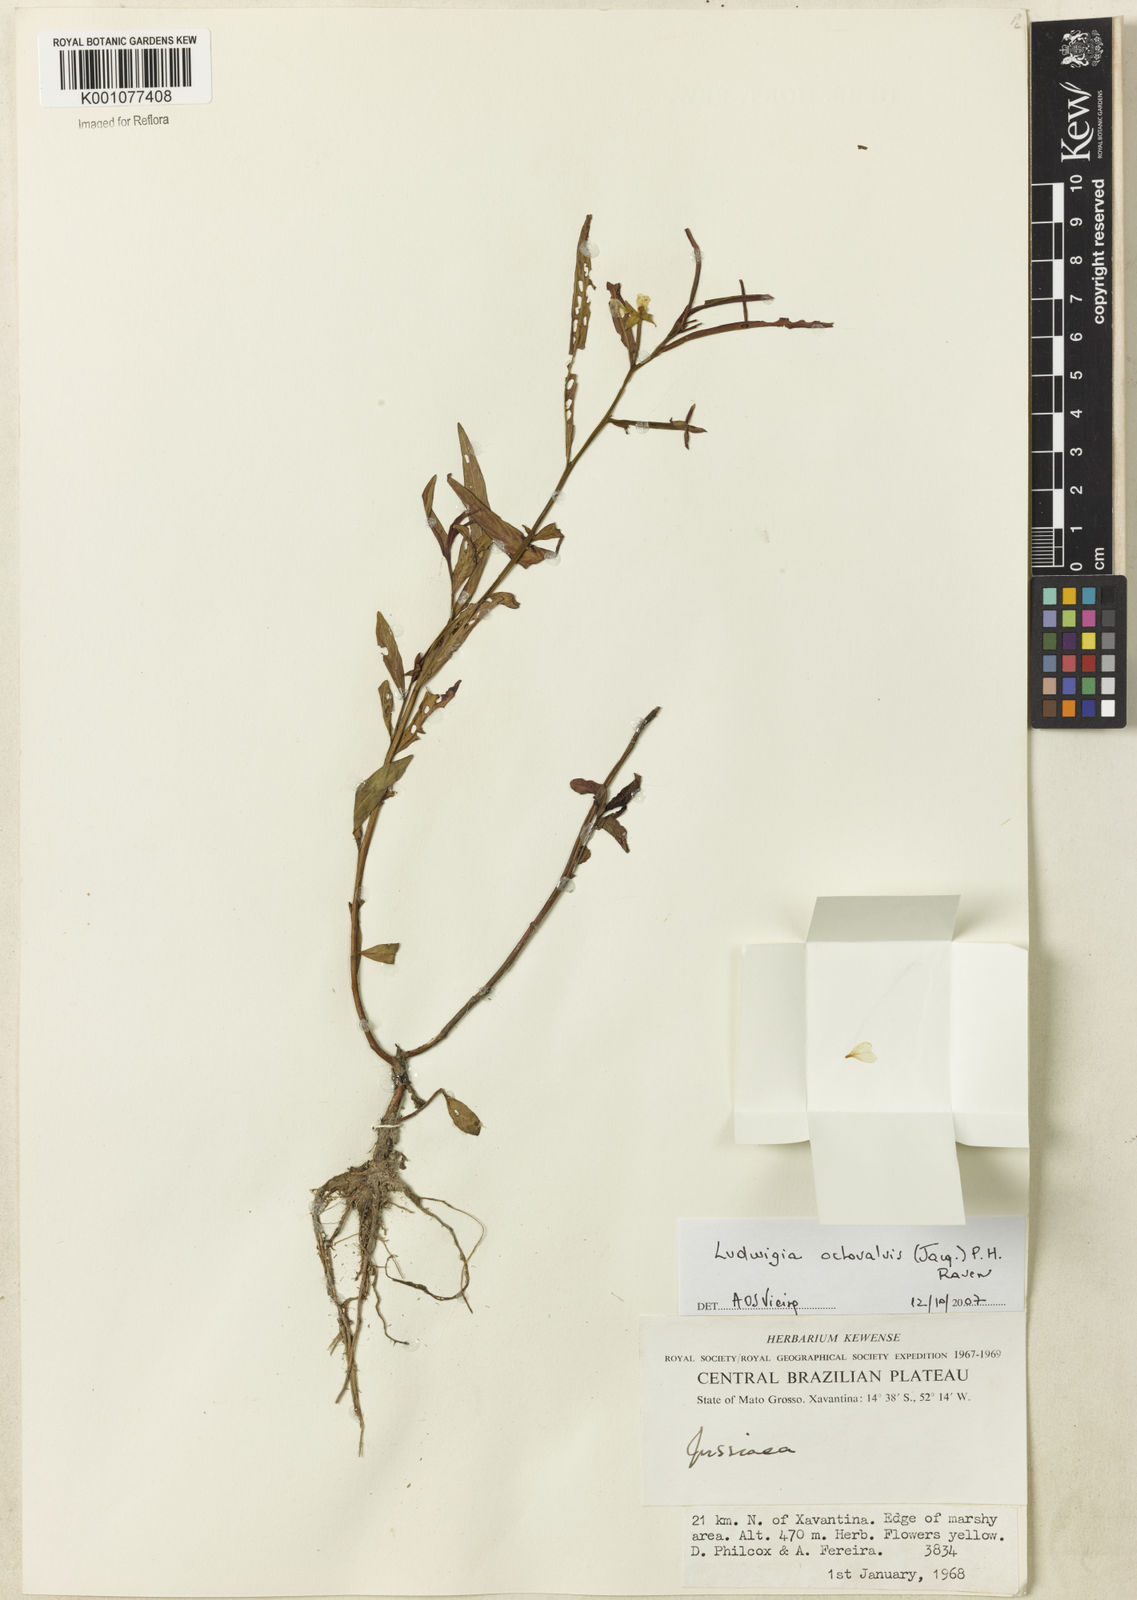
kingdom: Plantae
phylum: Tracheophyta
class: Magnoliopsida
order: Myrtales
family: Onagraceae
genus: Ludwigia
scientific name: Ludwigia octovalvis
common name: Water-primrose
